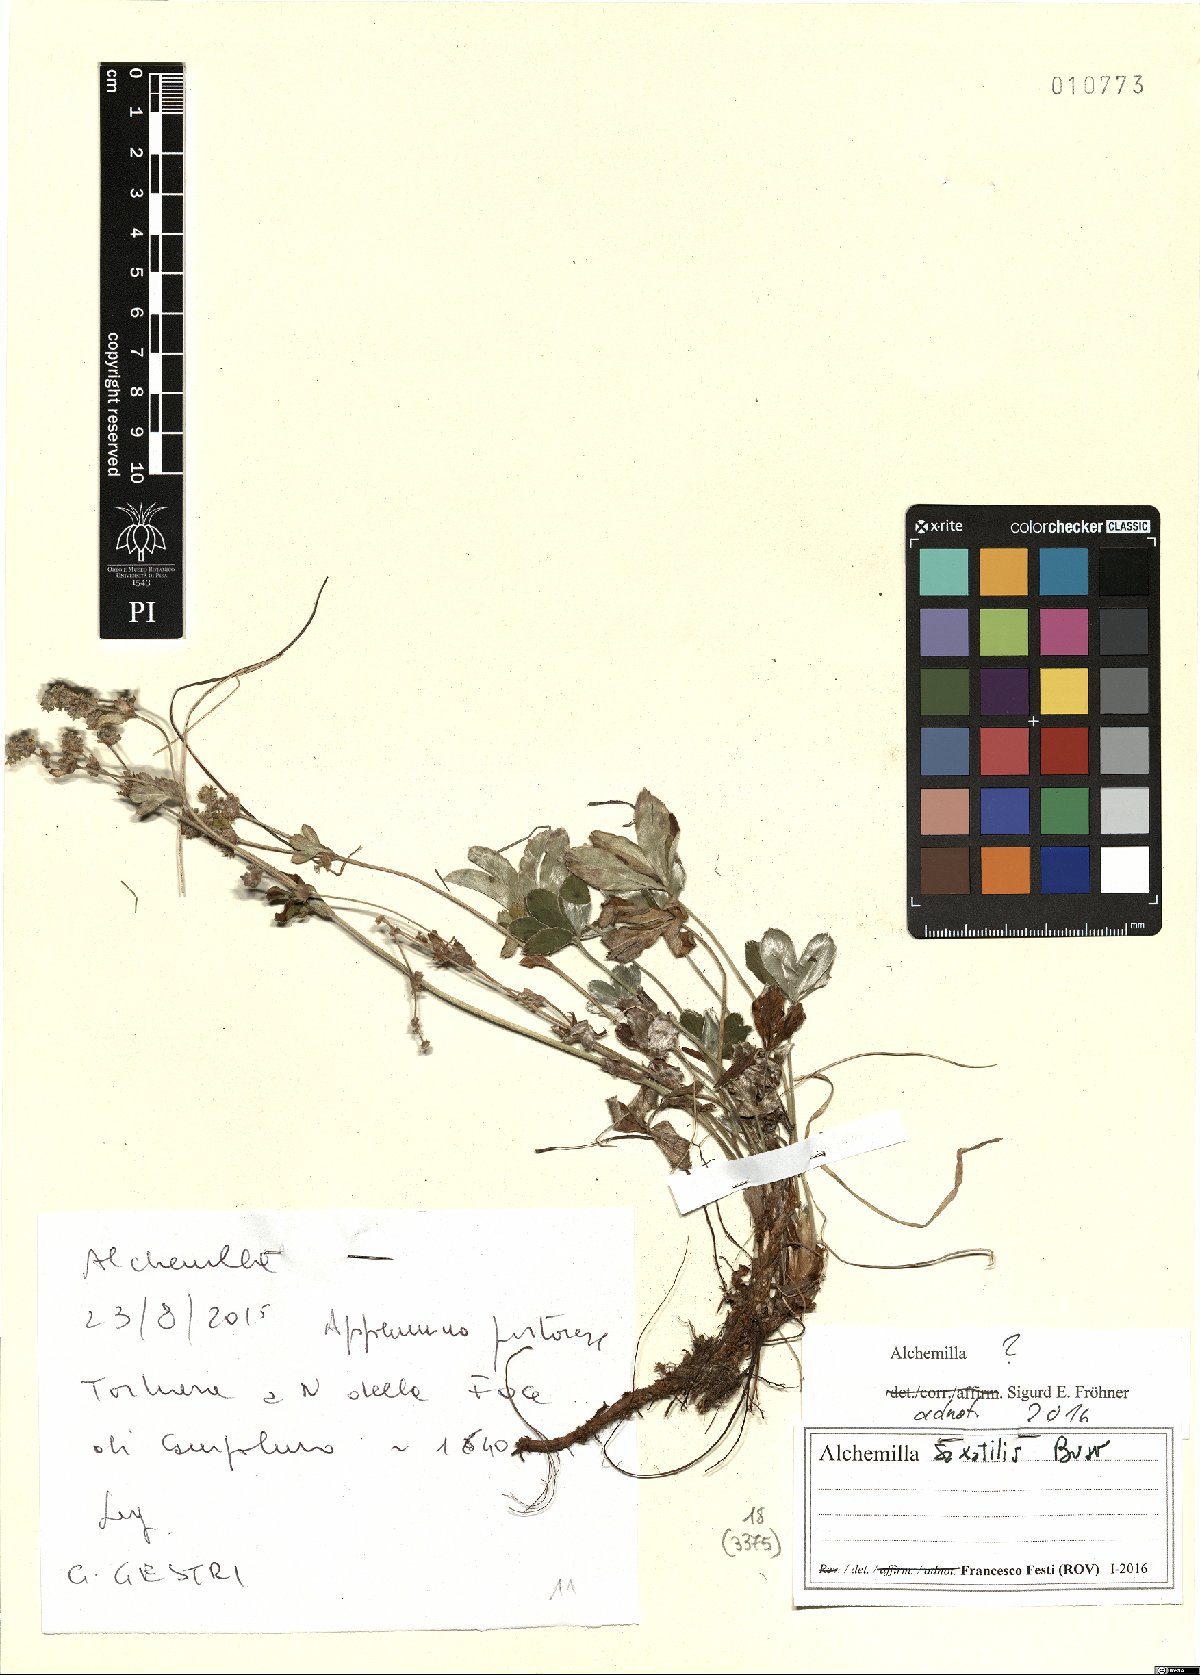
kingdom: Plantae
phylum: Tracheophyta
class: Magnoliopsida
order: Rosales
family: Rosaceae
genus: Alchemilla
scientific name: Alchemilla saxatilis
